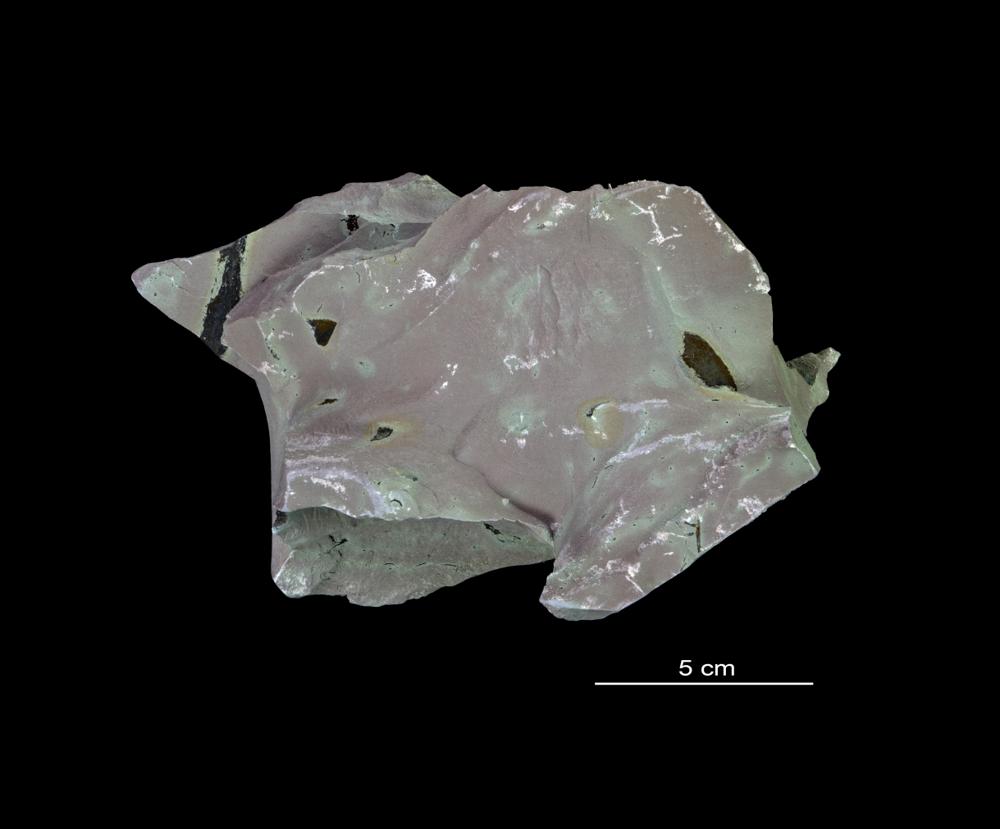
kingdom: Chromista
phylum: Foraminifera
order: Astrorhizida
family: Hyperamminidae
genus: Platysolenites
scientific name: Platysolenites
